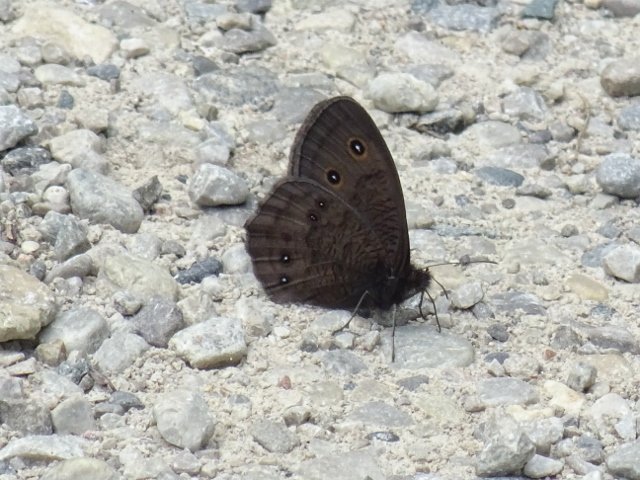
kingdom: Animalia
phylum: Arthropoda
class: Insecta
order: Lepidoptera
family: Nymphalidae
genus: Cercyonis
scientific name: Cercyonis pegala
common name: Common Wood-Nymph
